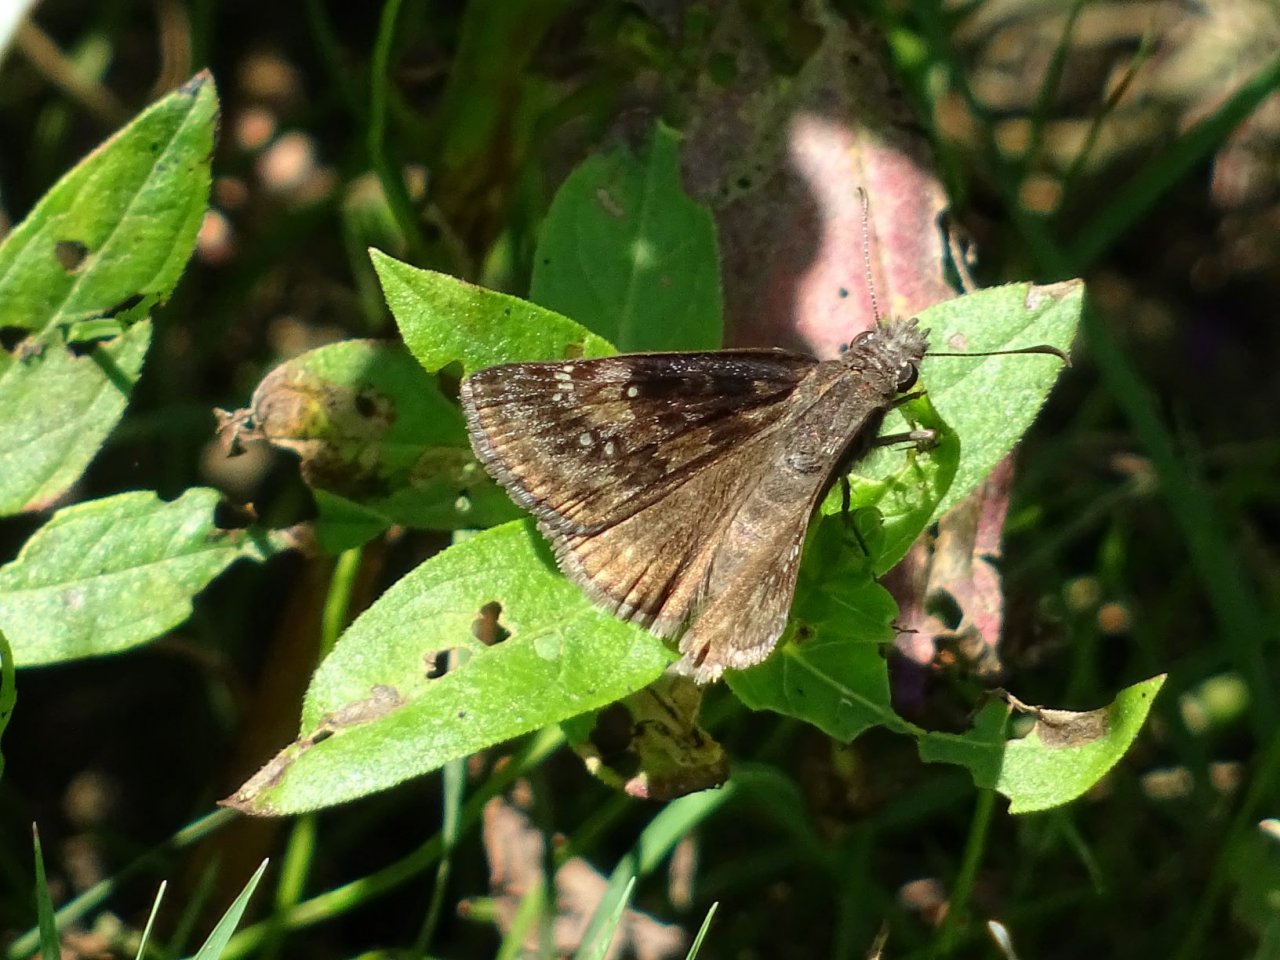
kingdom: Animalia
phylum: Arthropoda
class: Insecta
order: Lepidoptera
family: Hesperiidae
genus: Gesta
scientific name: Gesta
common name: Wild Indigo Duskywing
